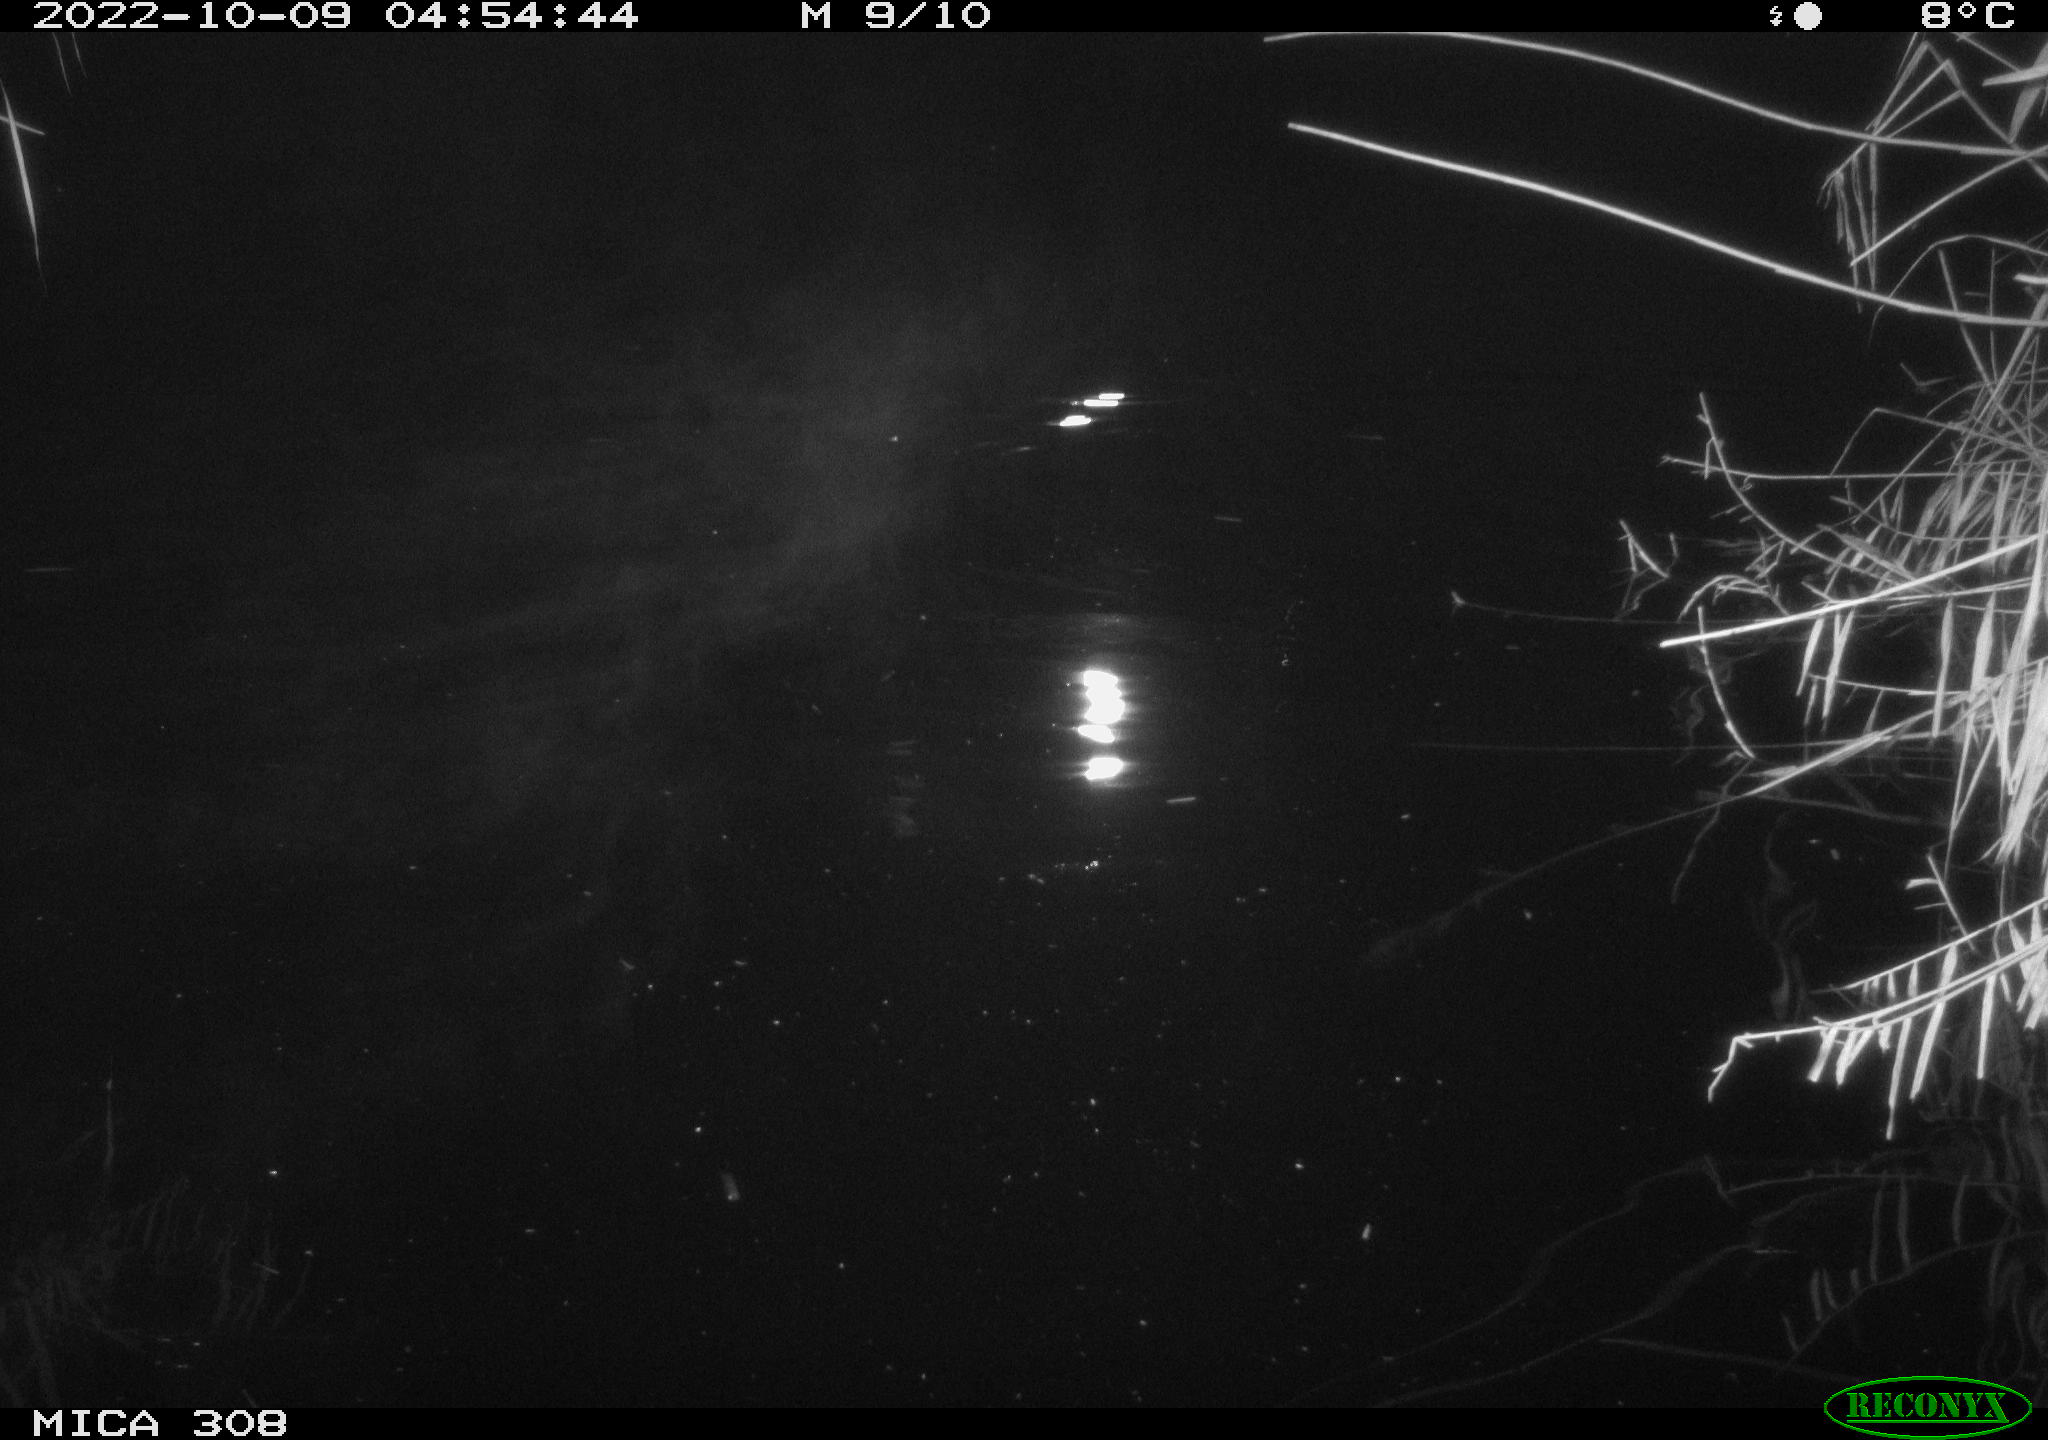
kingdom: Animalia
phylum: Chordata
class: Mammalia
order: Rodentia
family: Cricetidae
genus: Ondatra
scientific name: Ondatra zibethicus
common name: Muskrat
